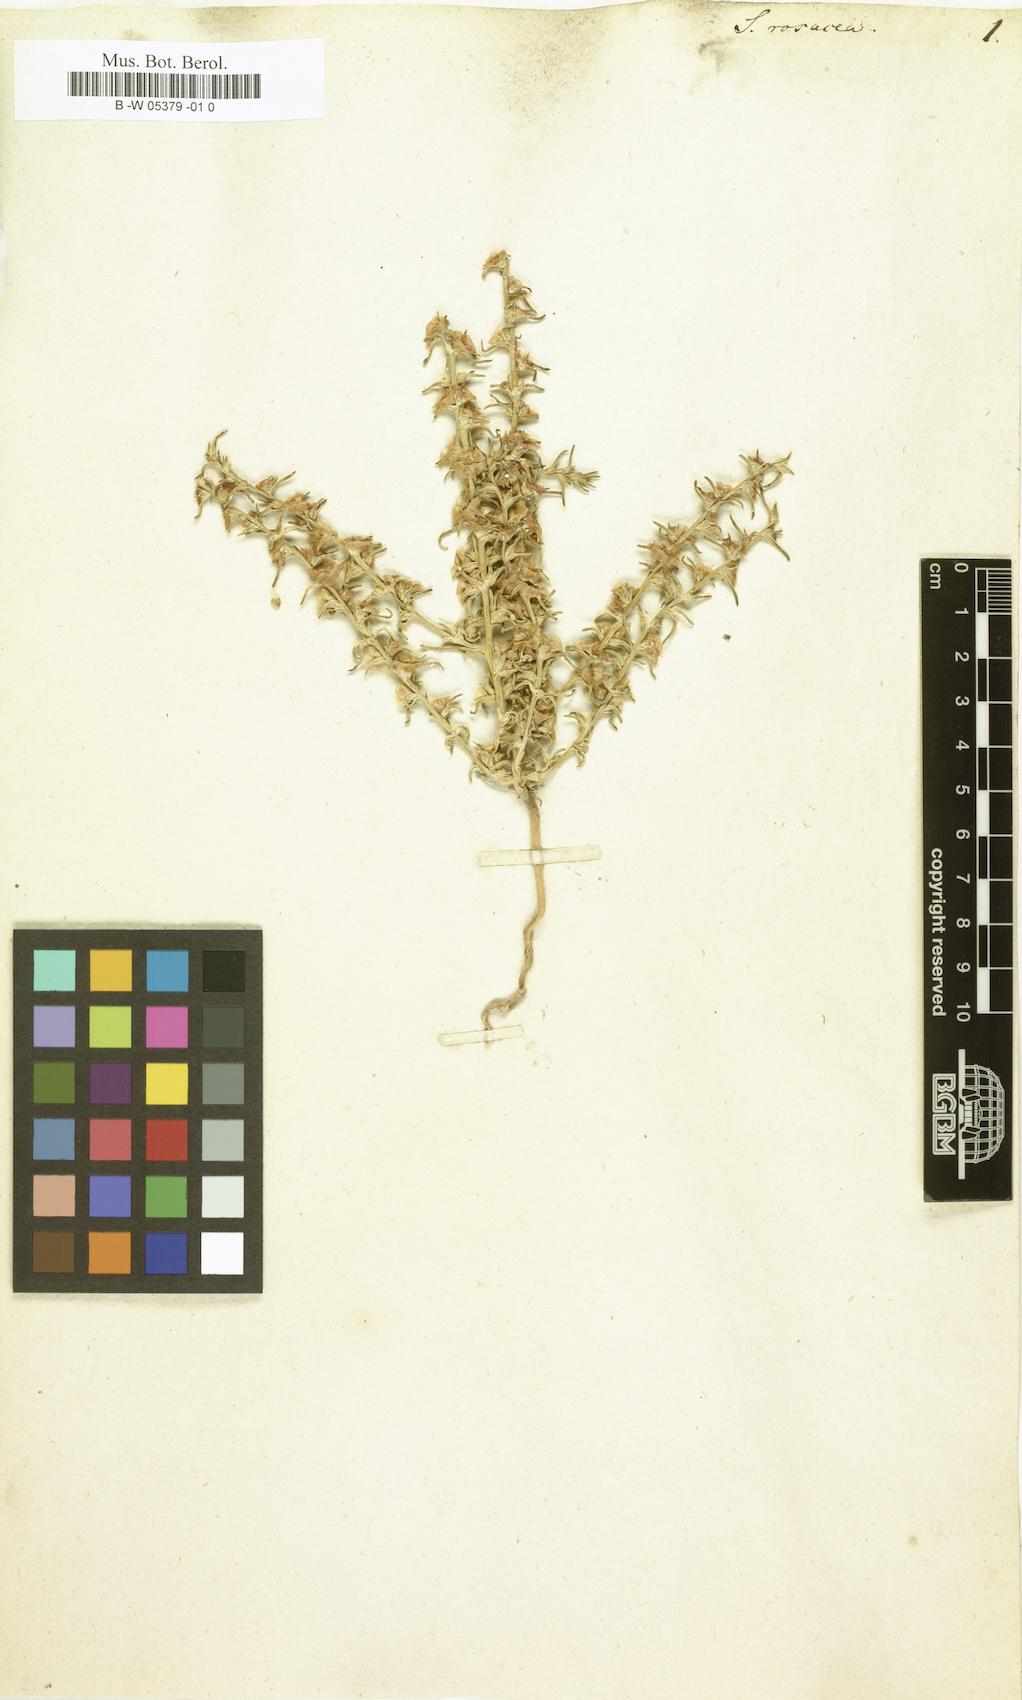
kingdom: Plantae
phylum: Tracheophyta
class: Magnoliopsida
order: Caryophyllales
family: Amaranthaceae
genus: Salsola
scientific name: Salsola rosacea
